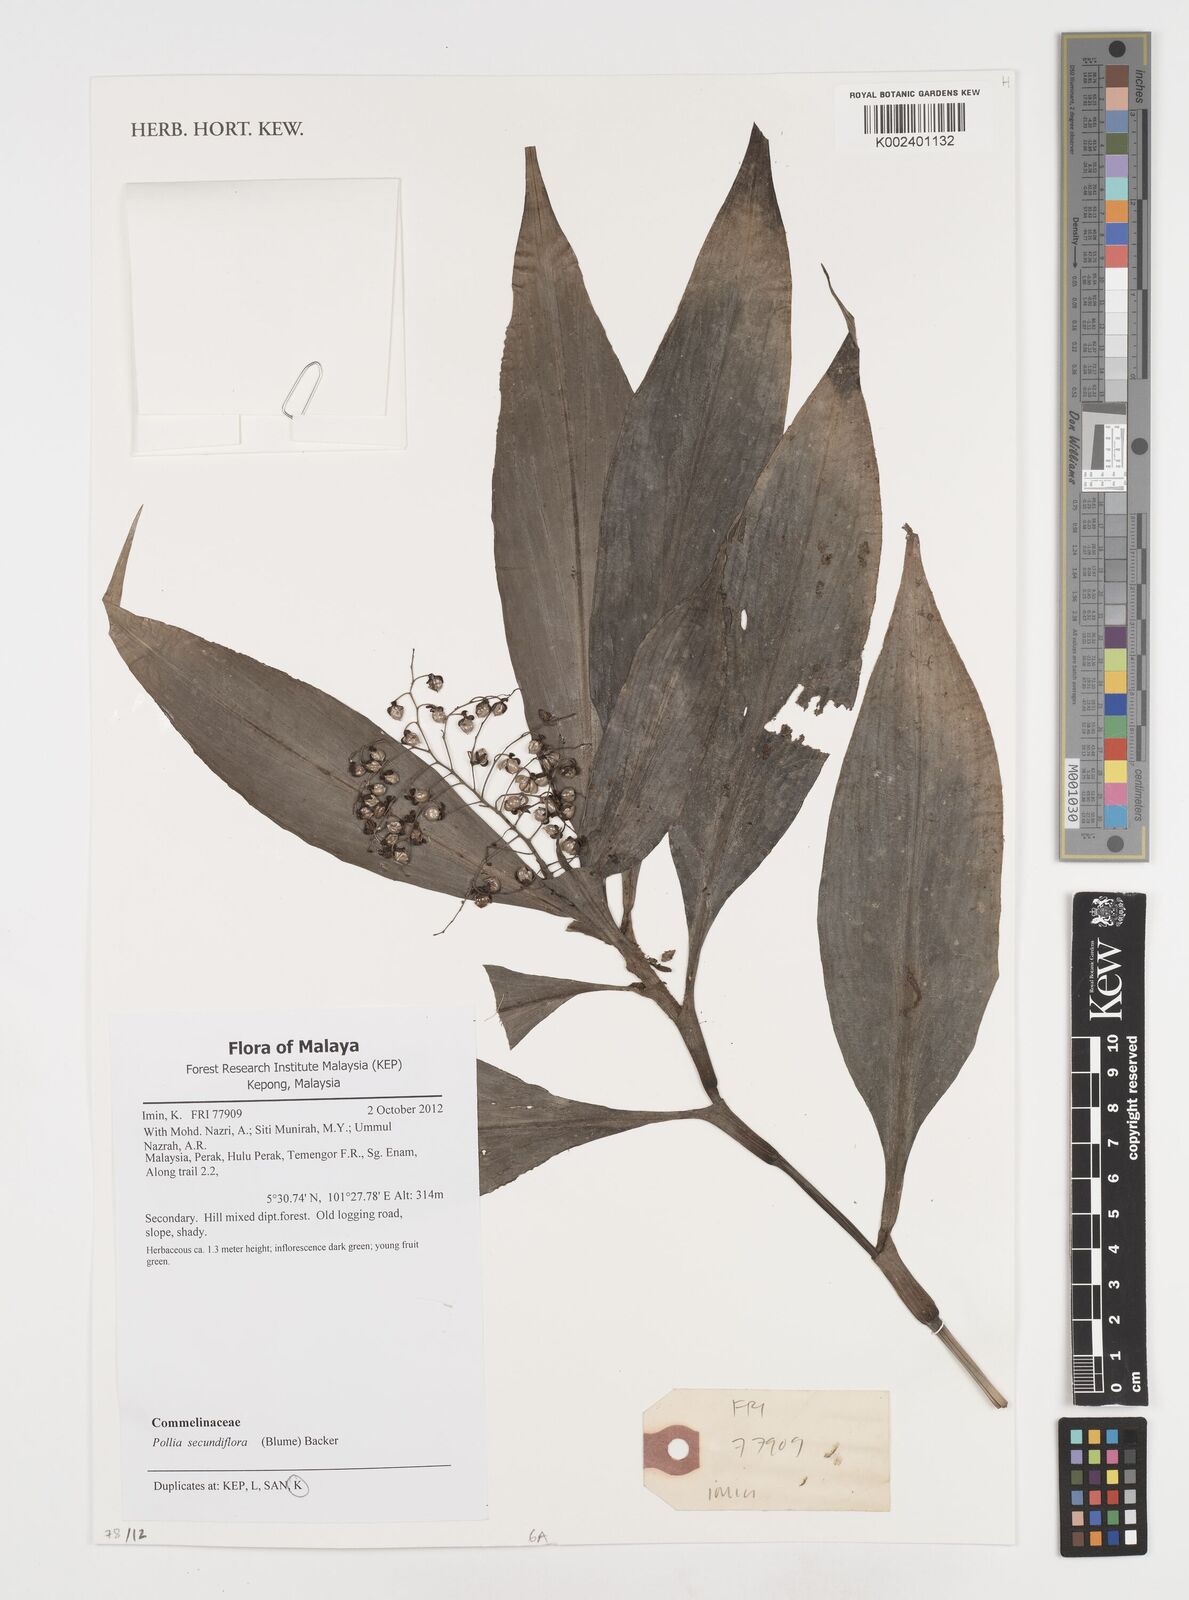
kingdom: Plantae
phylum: Tracheophyta
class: Liliopsida
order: Commelinales
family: Commelinaceae
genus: Pollia
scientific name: Pollia secundiflora
